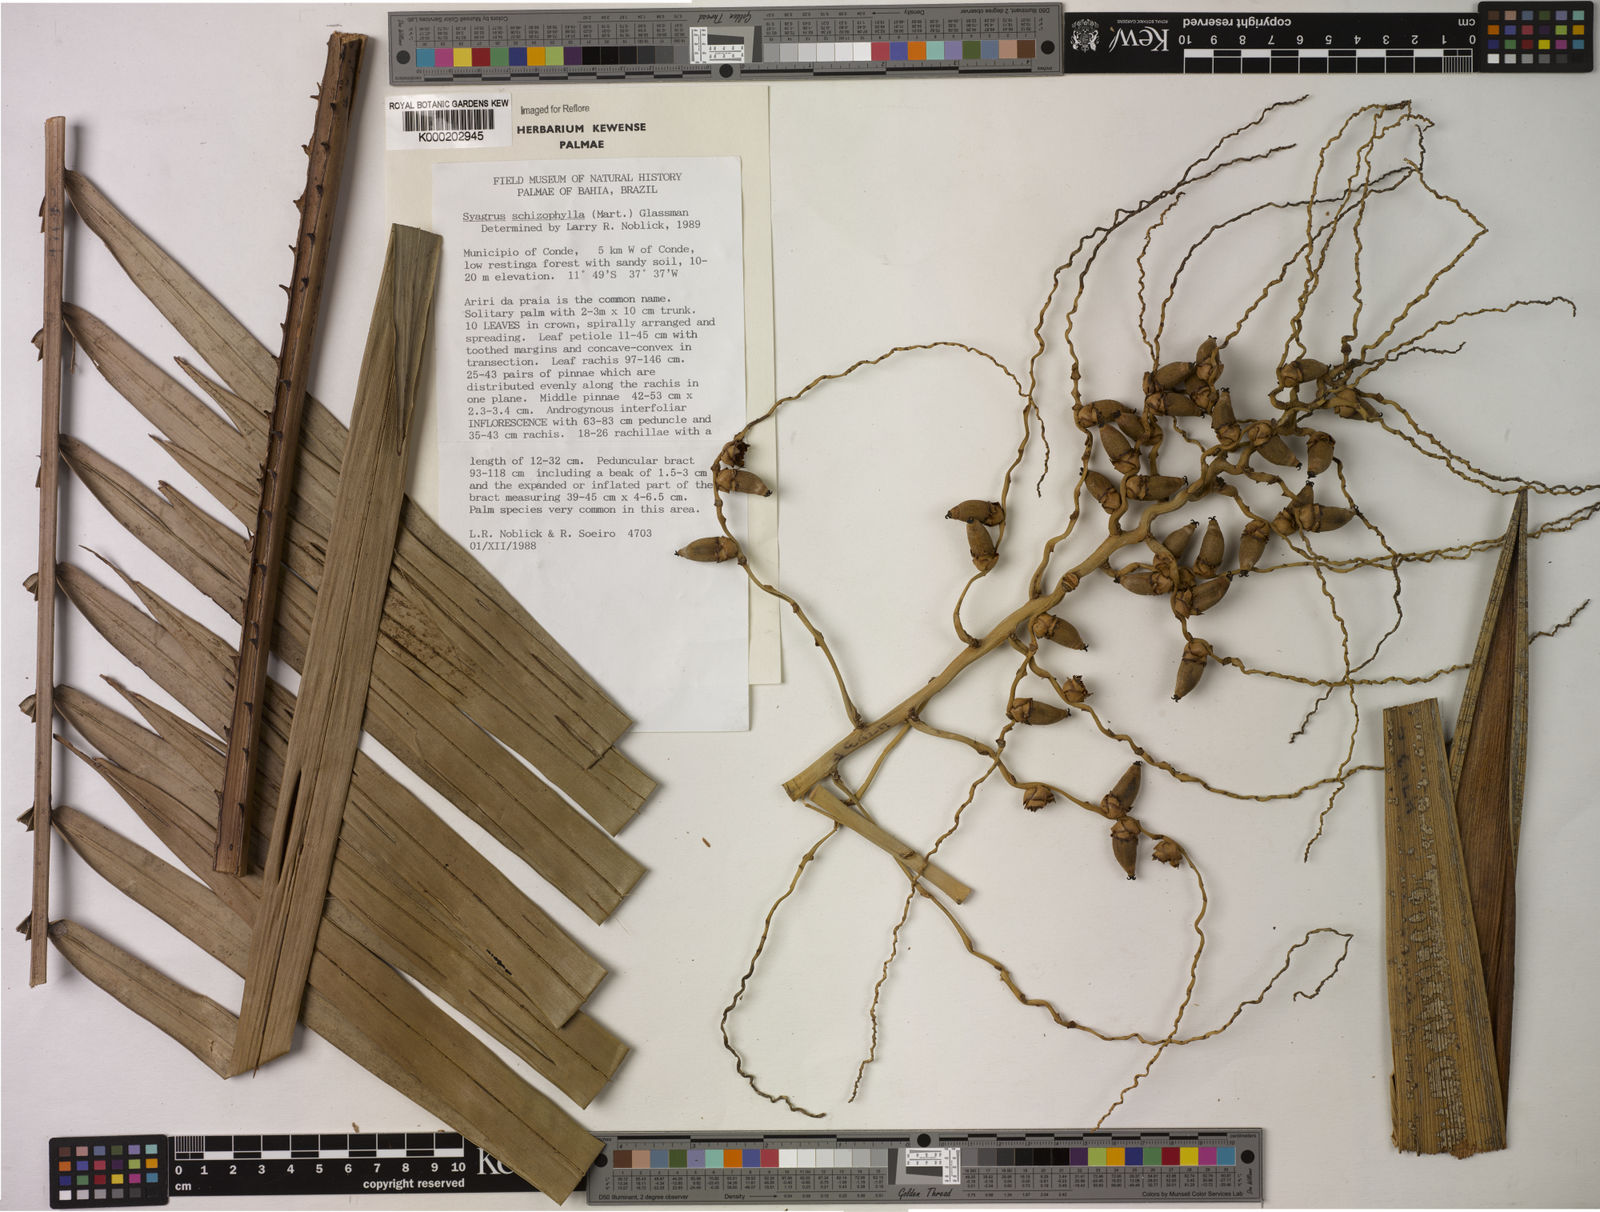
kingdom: Plantae
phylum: Tracheophyta
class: Liliopsida
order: Arecales
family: Arecaceae
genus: Syagrus
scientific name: Syagrus schizophylla
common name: Arikury palm
